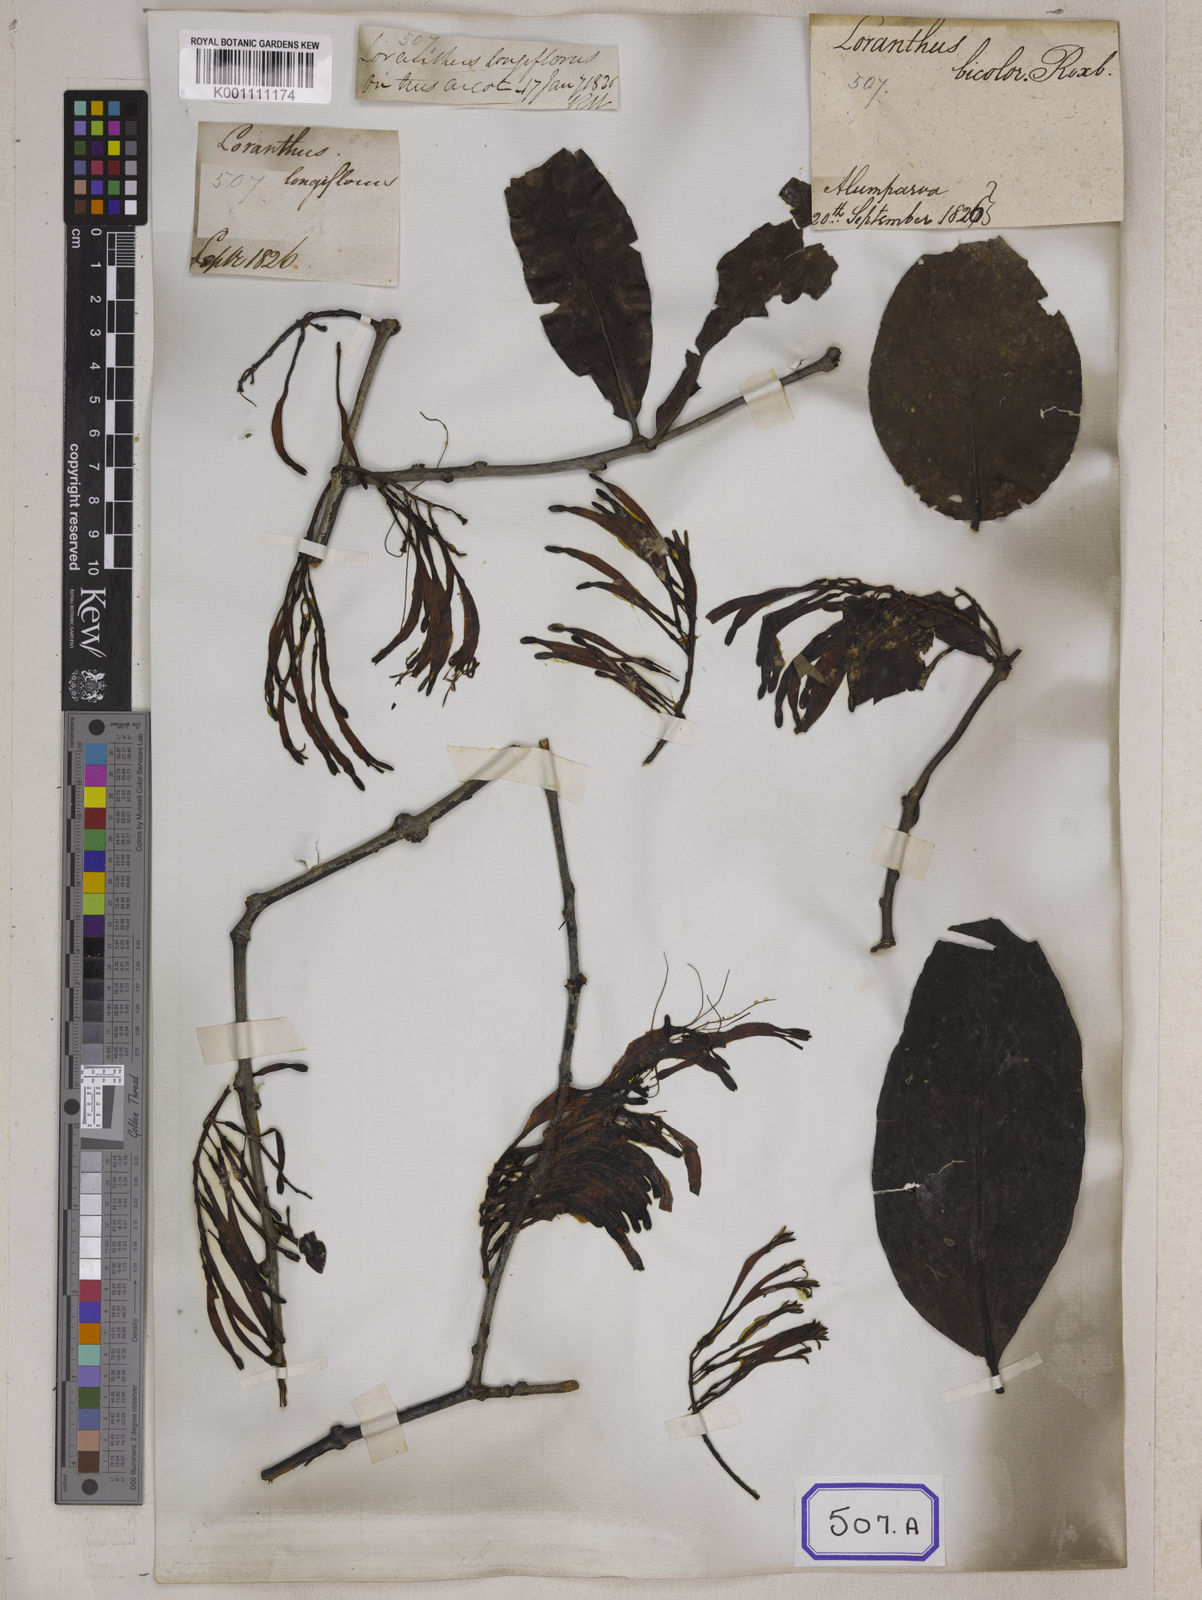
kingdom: Plantae
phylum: Tracheophyta
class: Magnoliopsida
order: Santalales
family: Loranthaceae
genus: Loranthus
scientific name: Loranthus
